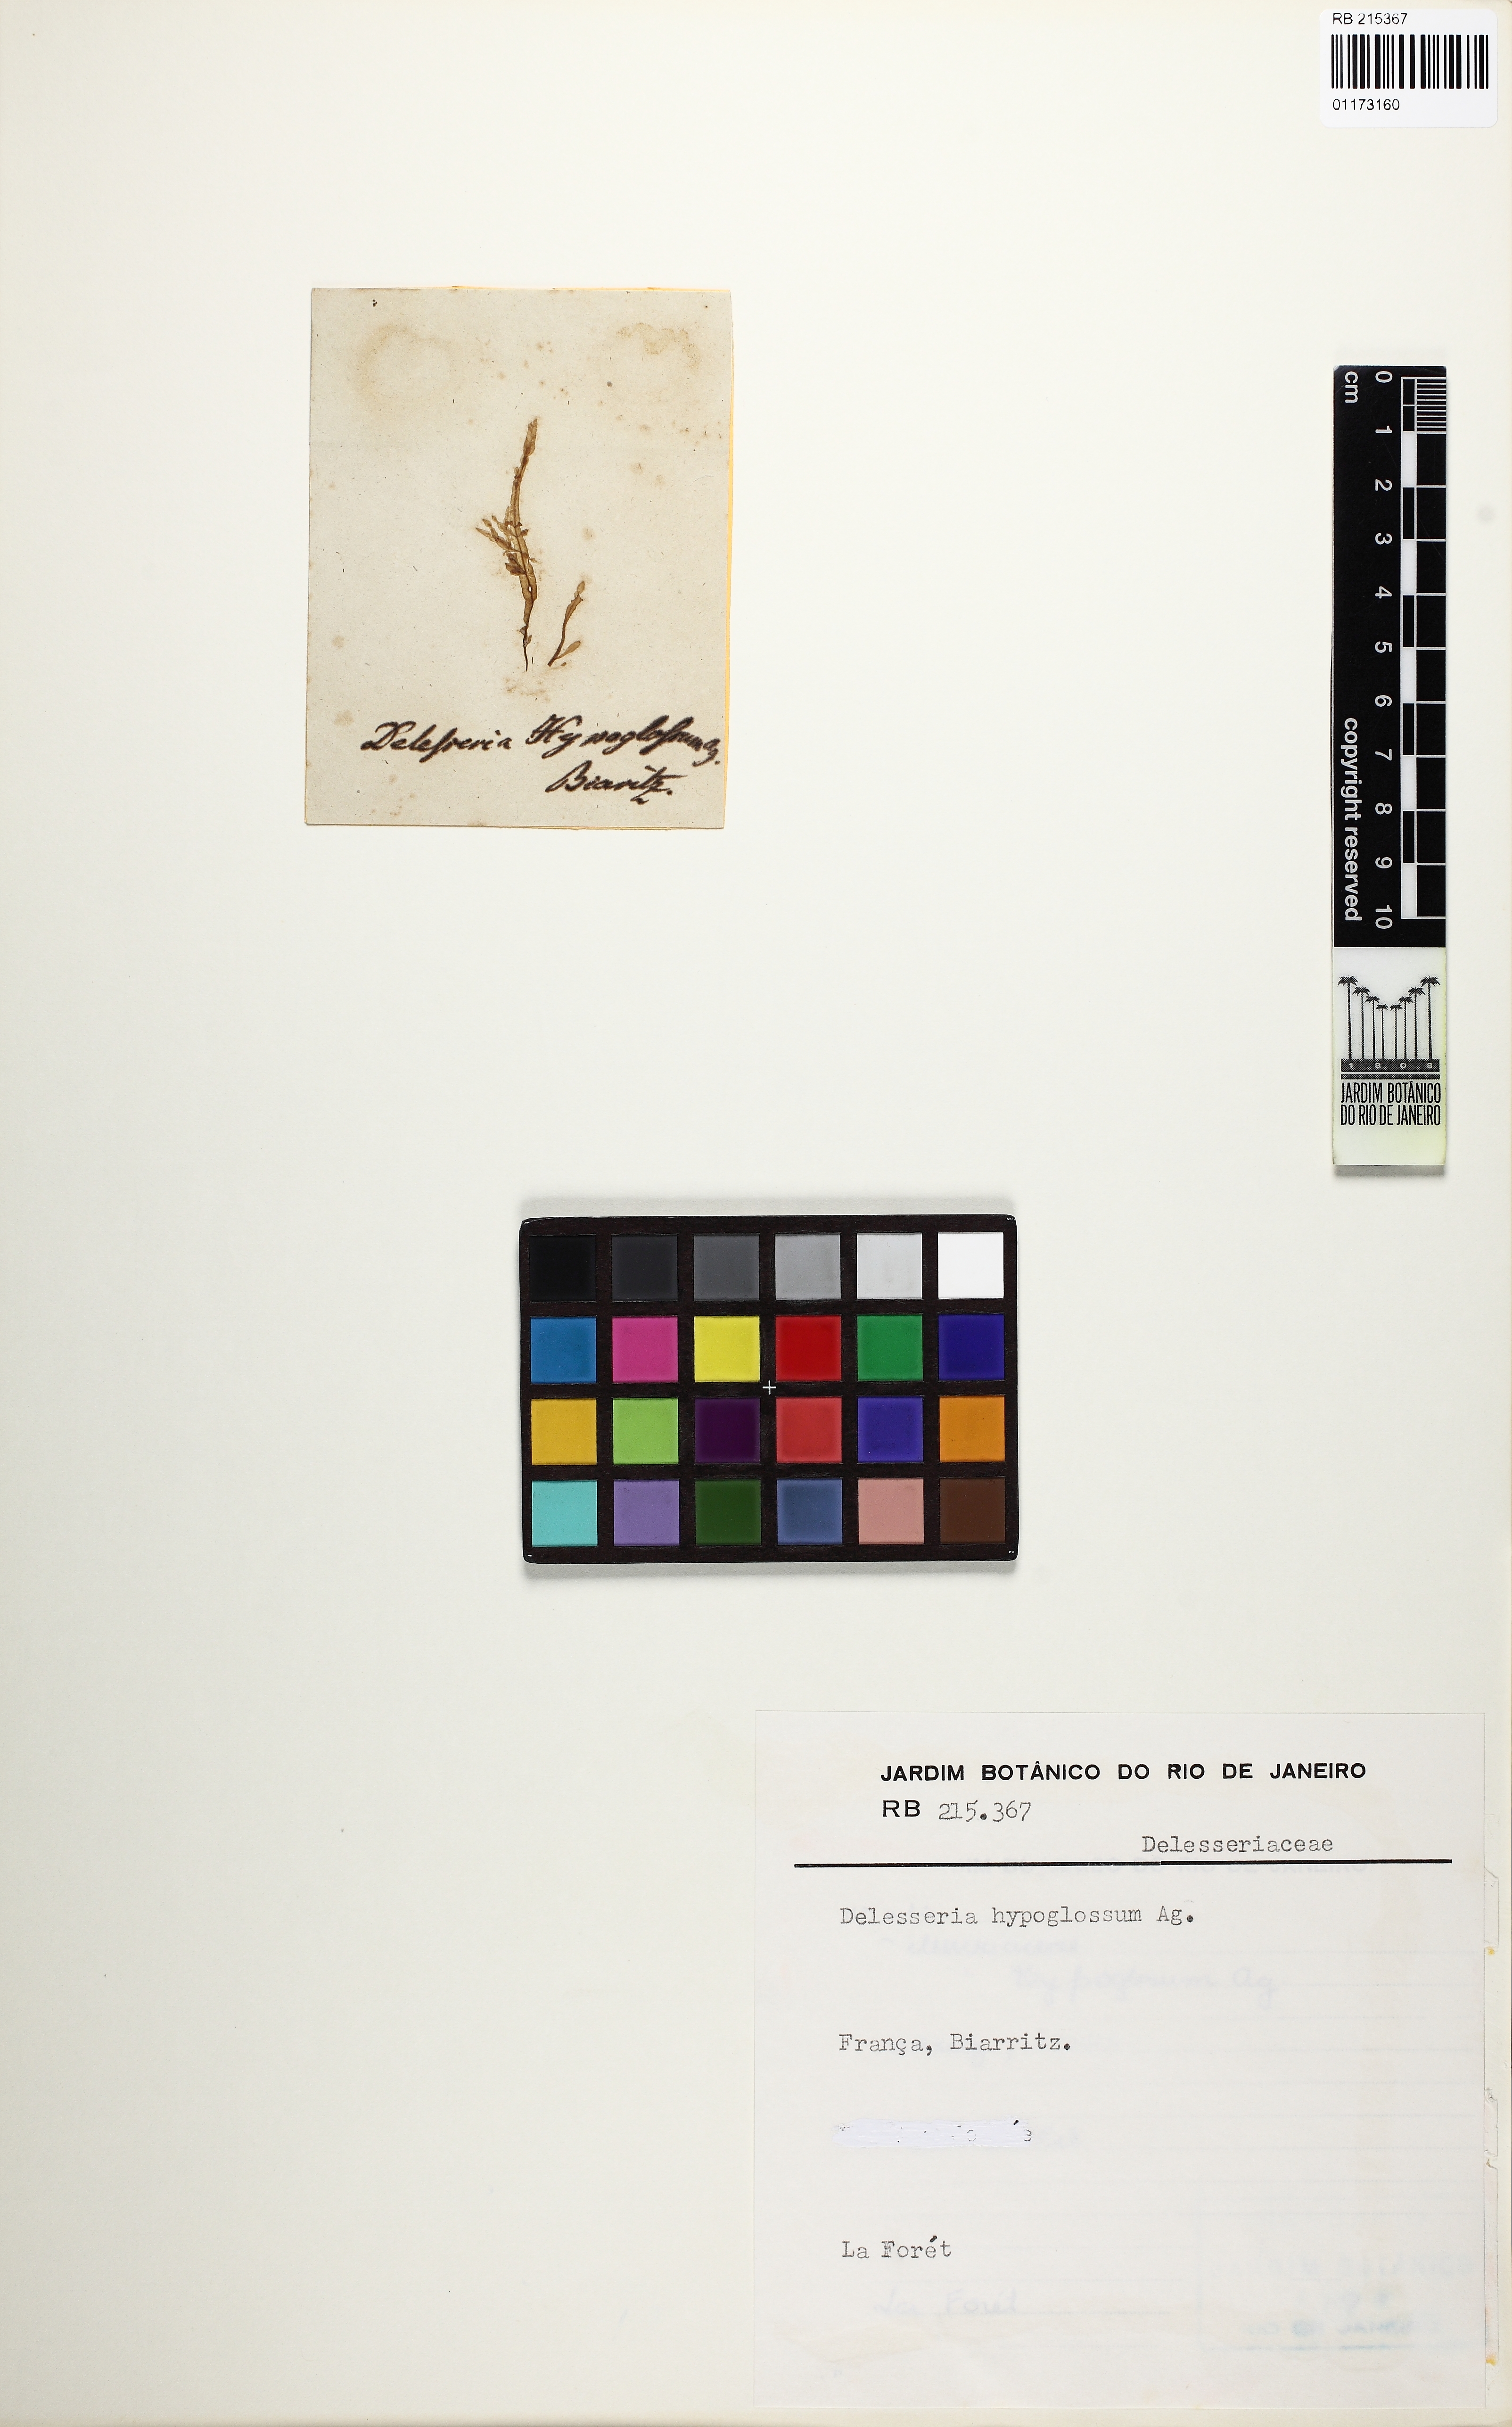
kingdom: Plantae
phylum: Rhodophyta
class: Florideophyceae
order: Ceramiales
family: Delesseriaceae
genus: Hypoglossum
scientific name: Hypoglossum hypoglossoides
